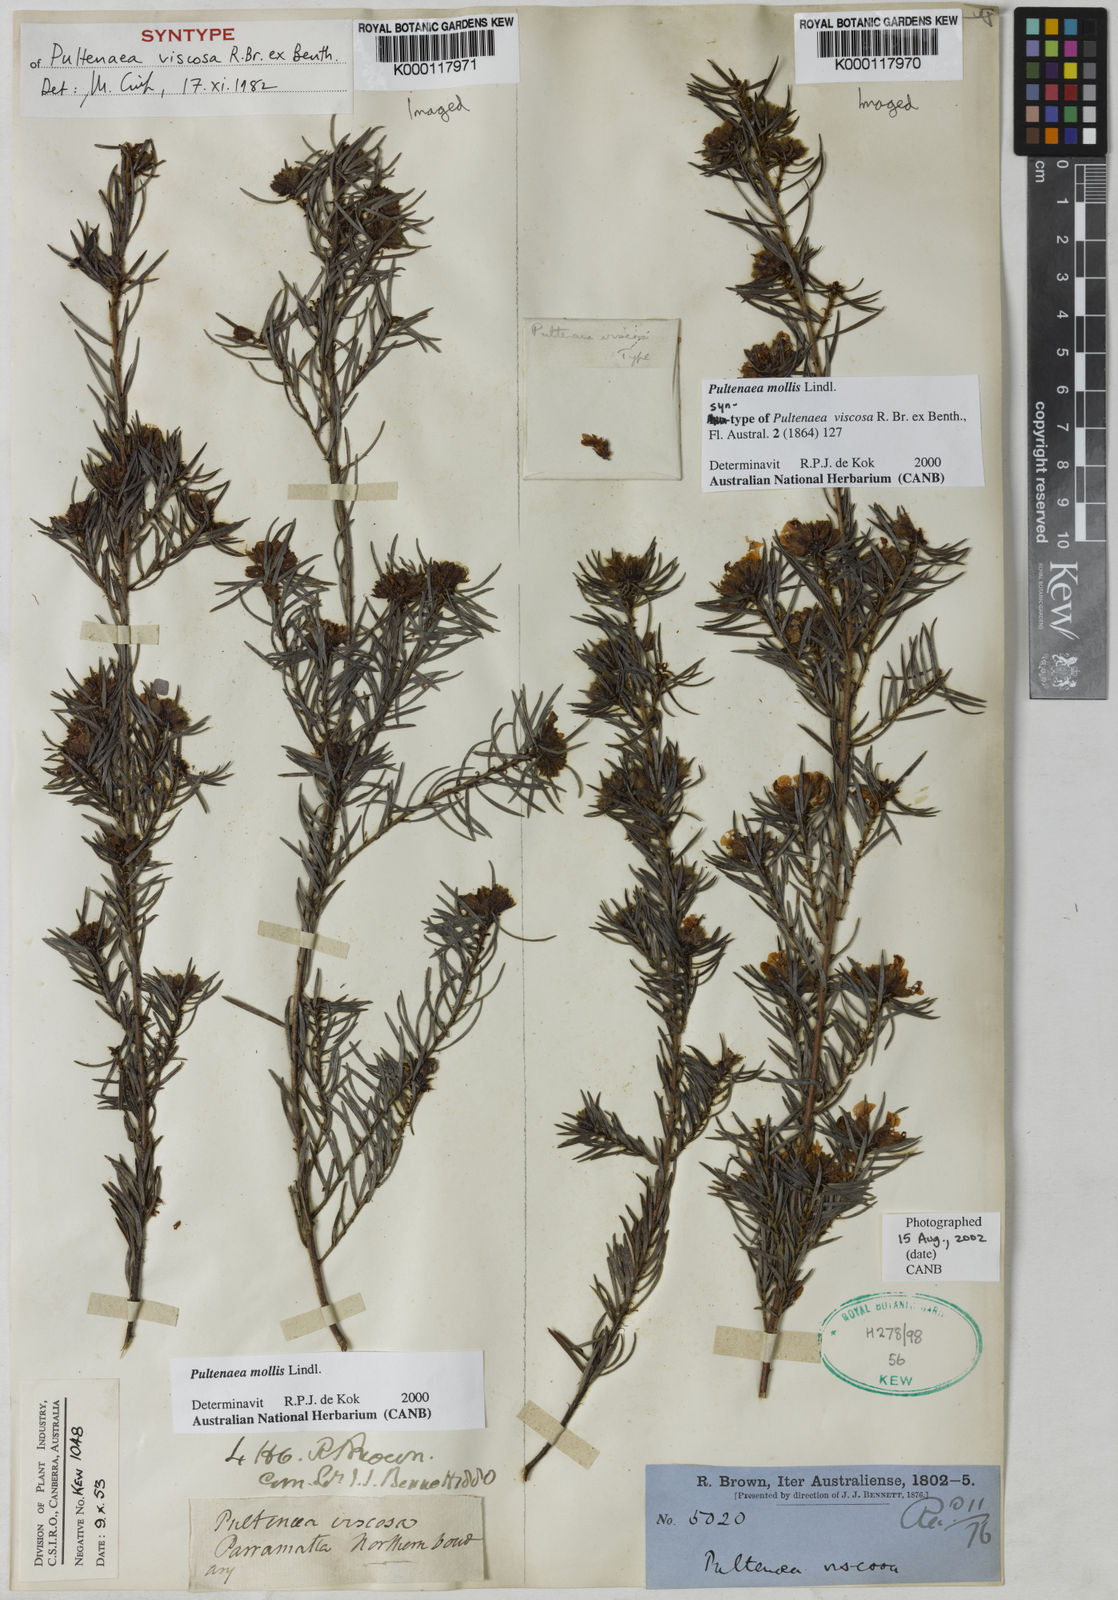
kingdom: Plantae
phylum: Tracheophyta
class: Magnoliopsida
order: Fabales
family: Fabaceae
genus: Pultenaea
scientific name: Pultenaea
